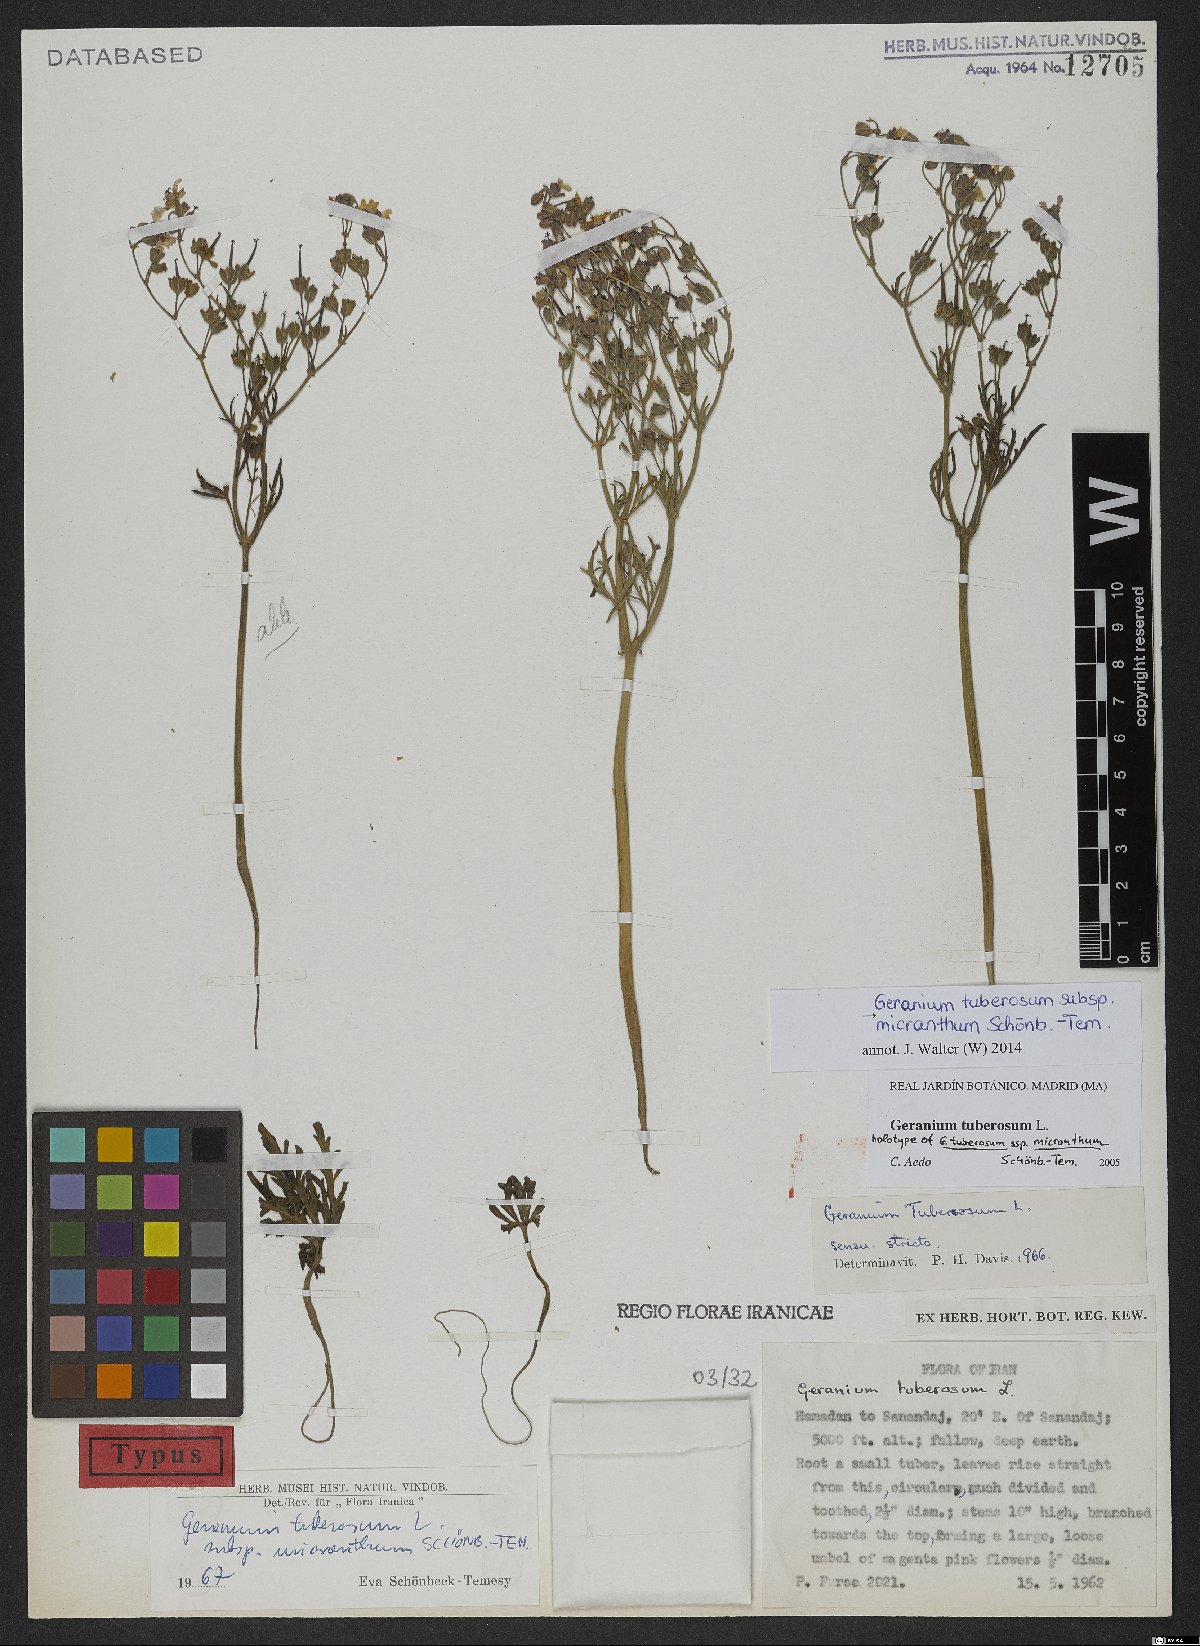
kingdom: Plantae
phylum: Tracheophyta
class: Magnoliopsida
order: Geraniales
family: Geraniaceae
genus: Geranium
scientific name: Geranium tuberosum
